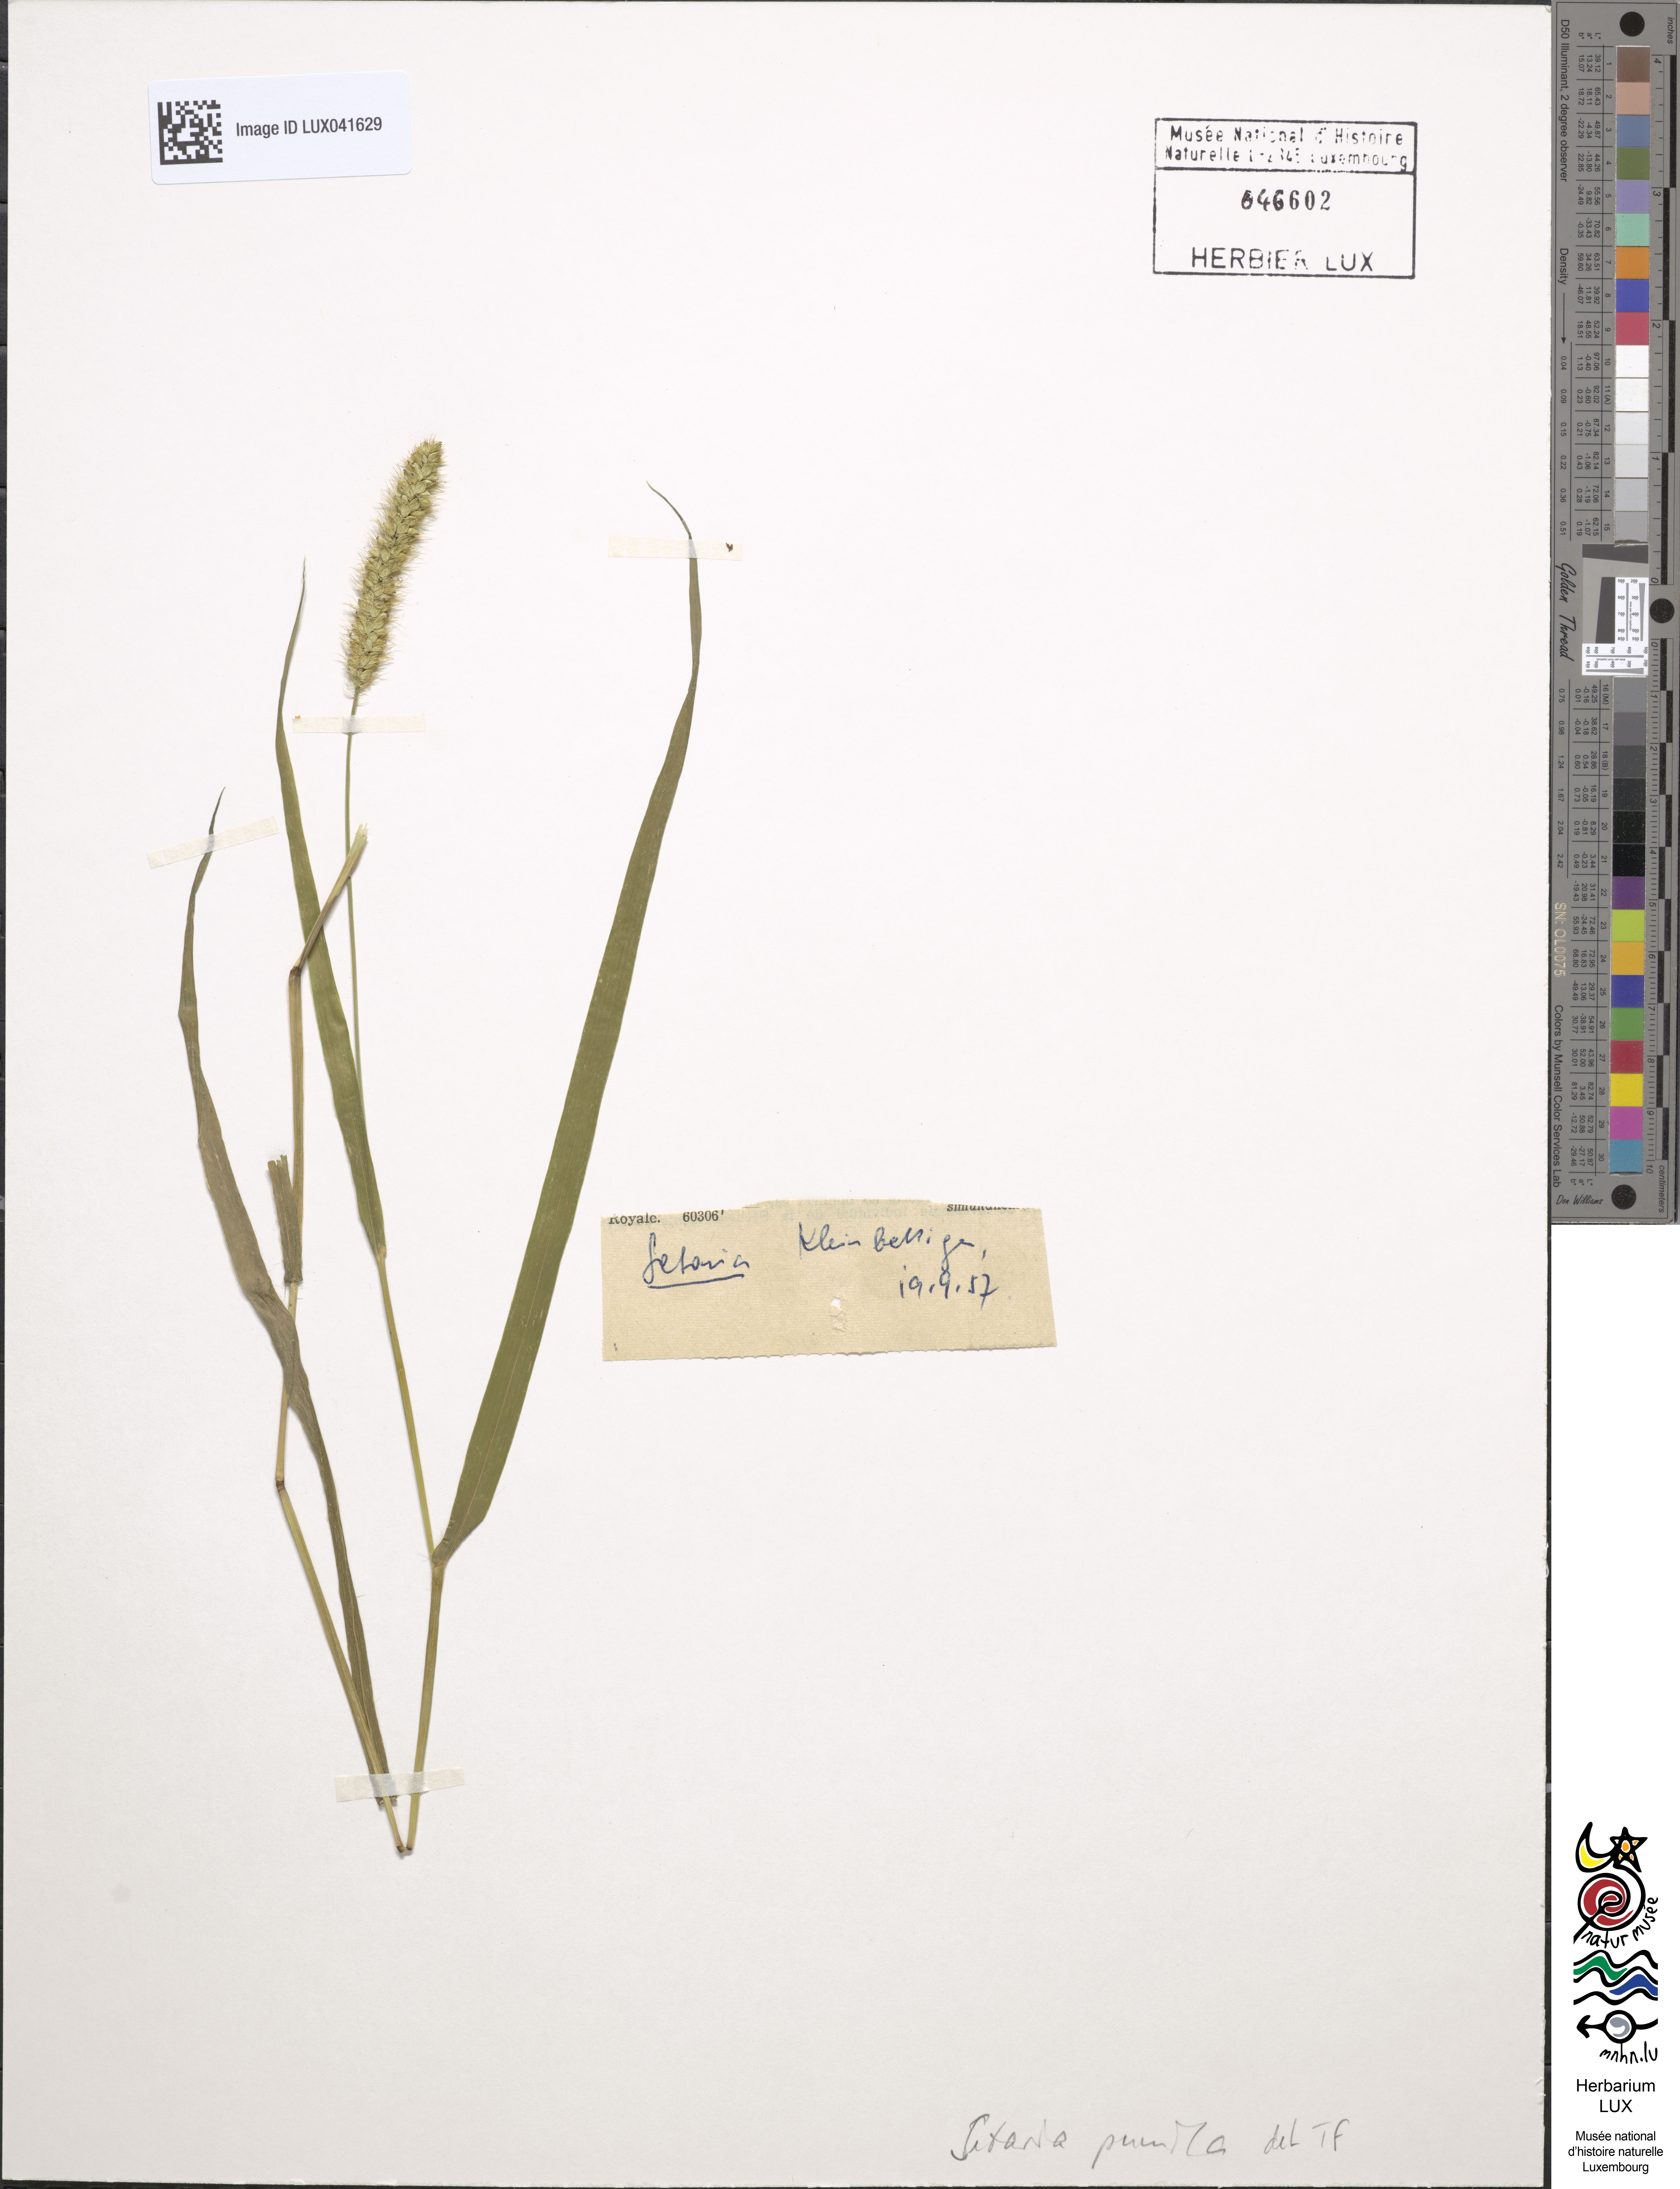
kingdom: Plantae
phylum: Tracheophyta
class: Liliopsida
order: Poales
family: Poaceae
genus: Setaria
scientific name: Setaria pumila
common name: Yellow bristle-grass
